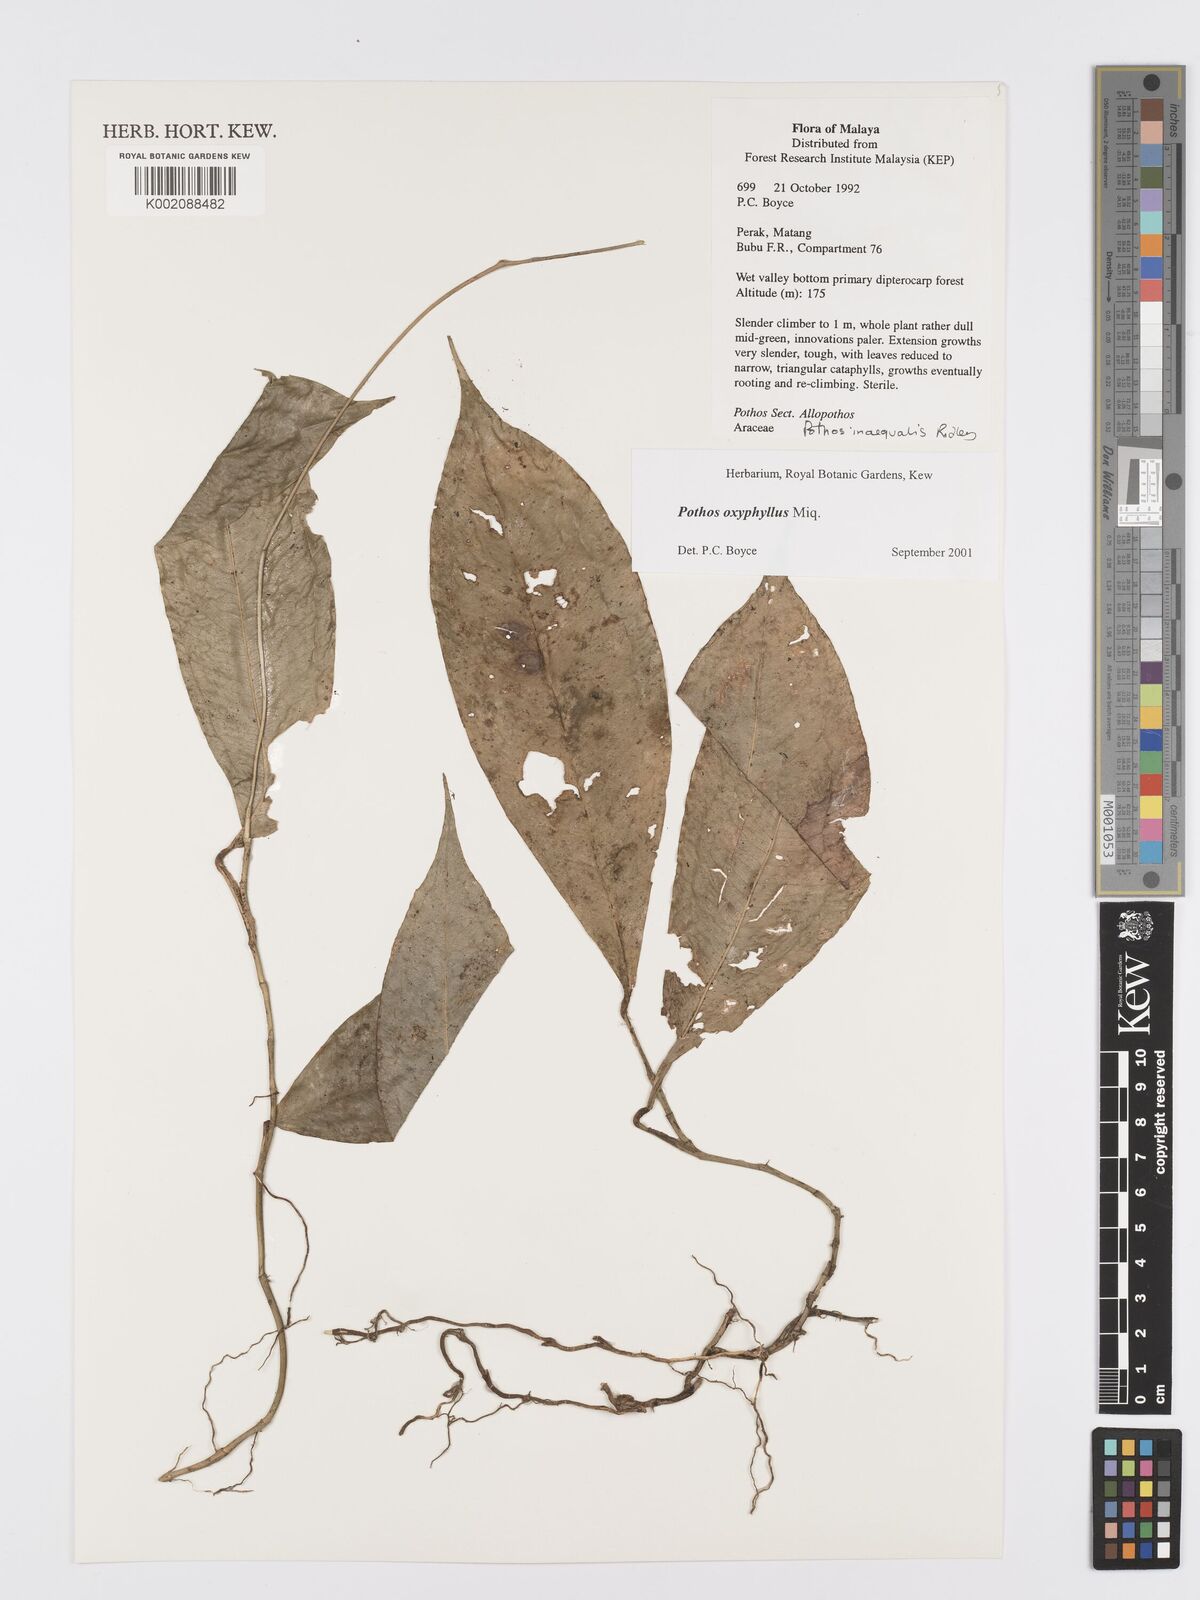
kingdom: Plantae
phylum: Tracheophyta
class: Liliopsida
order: Alismatales
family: Araceae
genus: Pothos
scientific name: Pothos oxyphyllus
